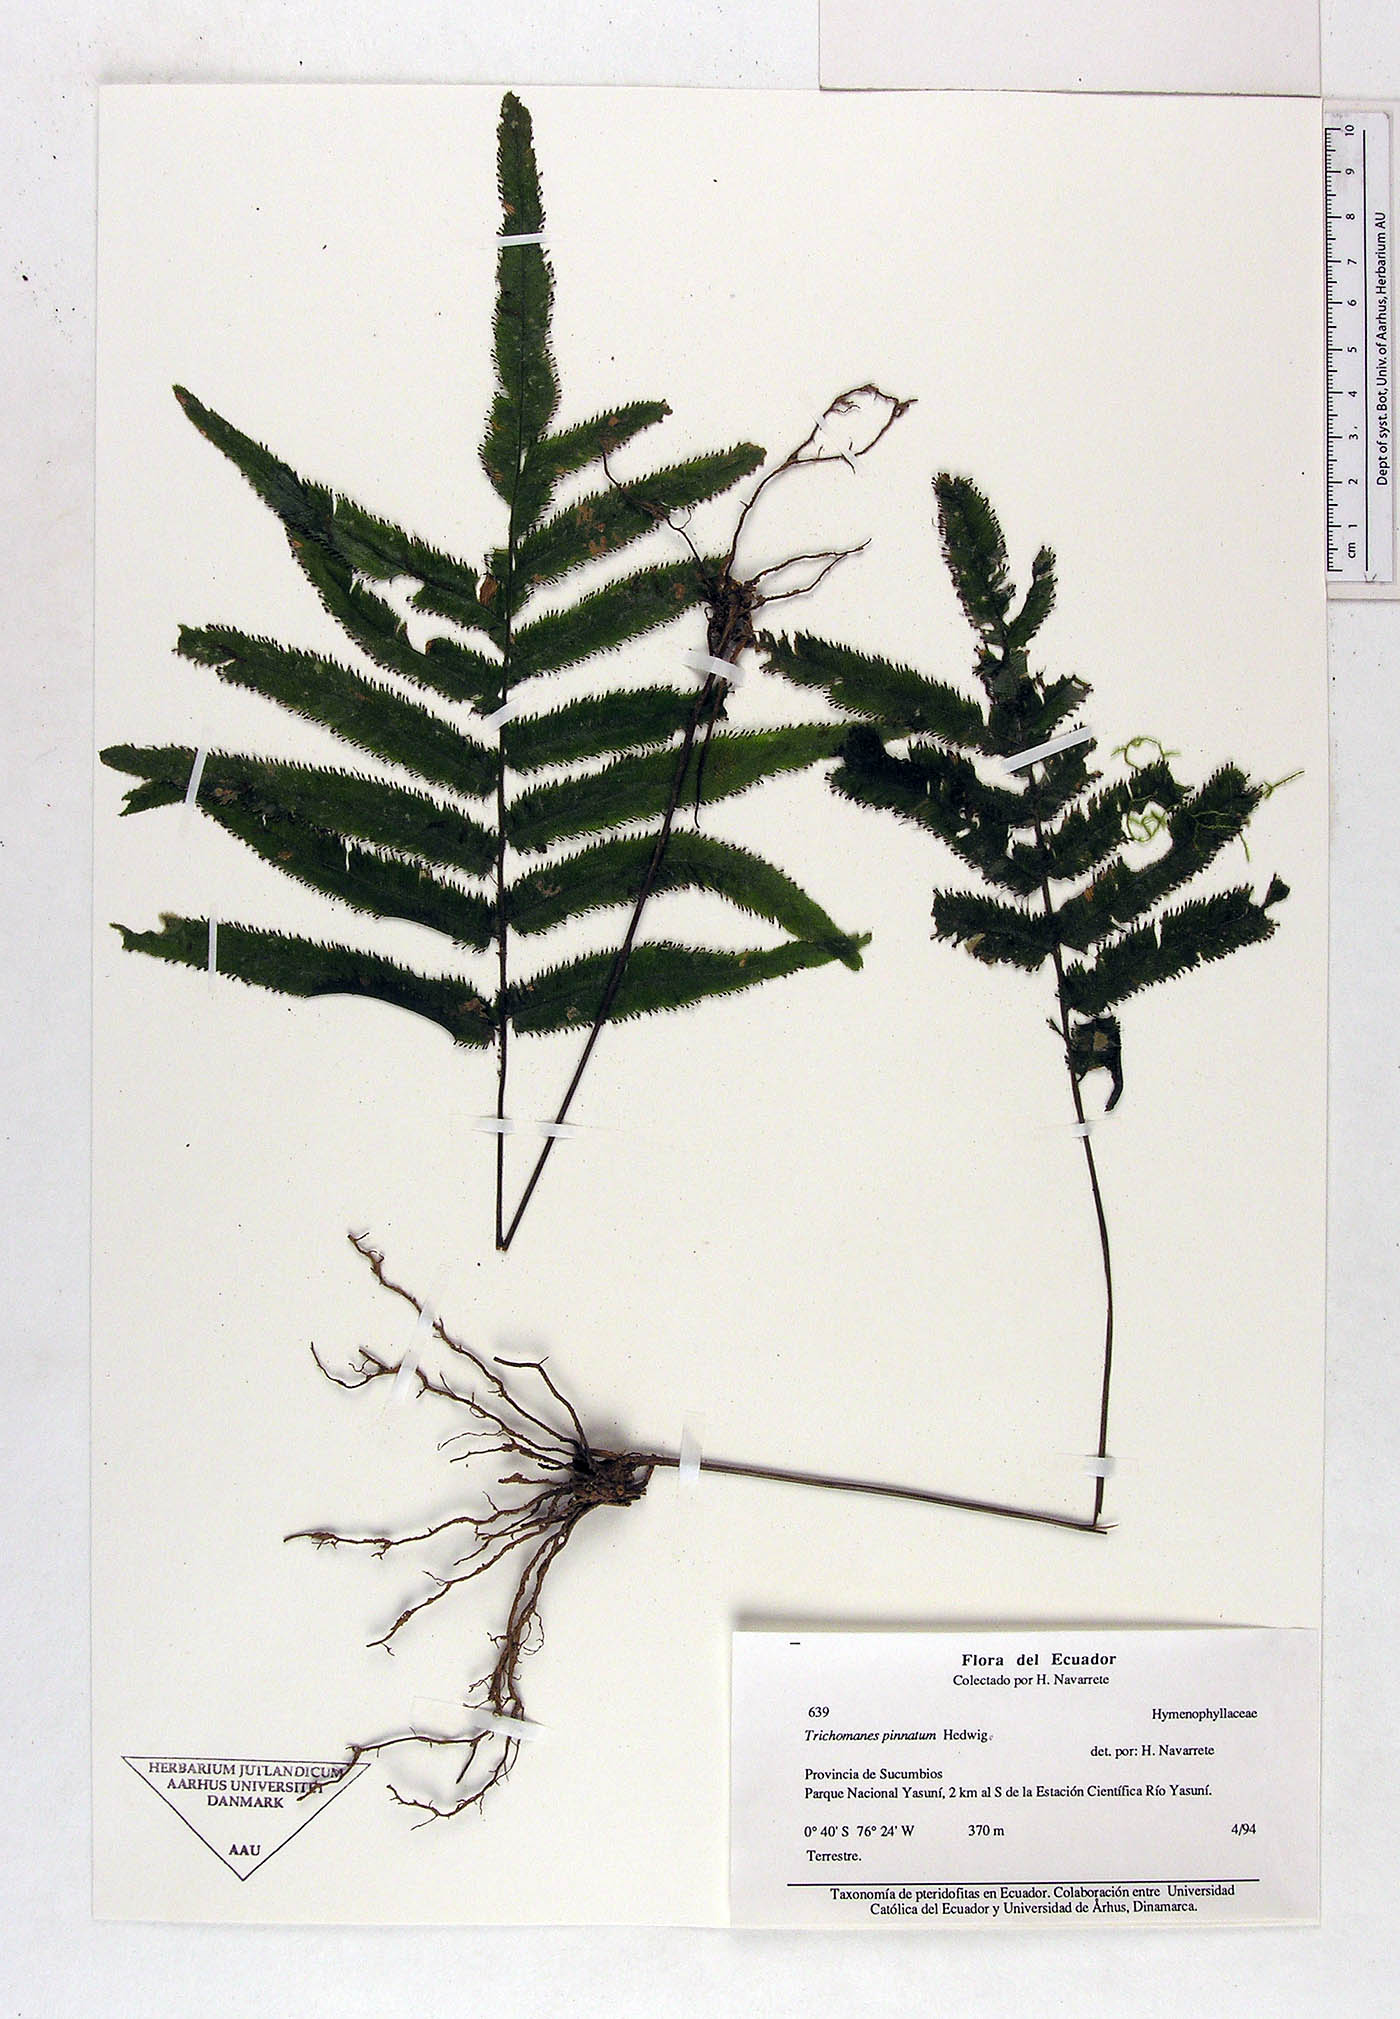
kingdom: Plantae
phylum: Tracheophyta
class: Polypodiopsida
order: Hymenophyllales
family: Hymenophyllaceae
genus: Trichomanes
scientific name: Trichomanes
